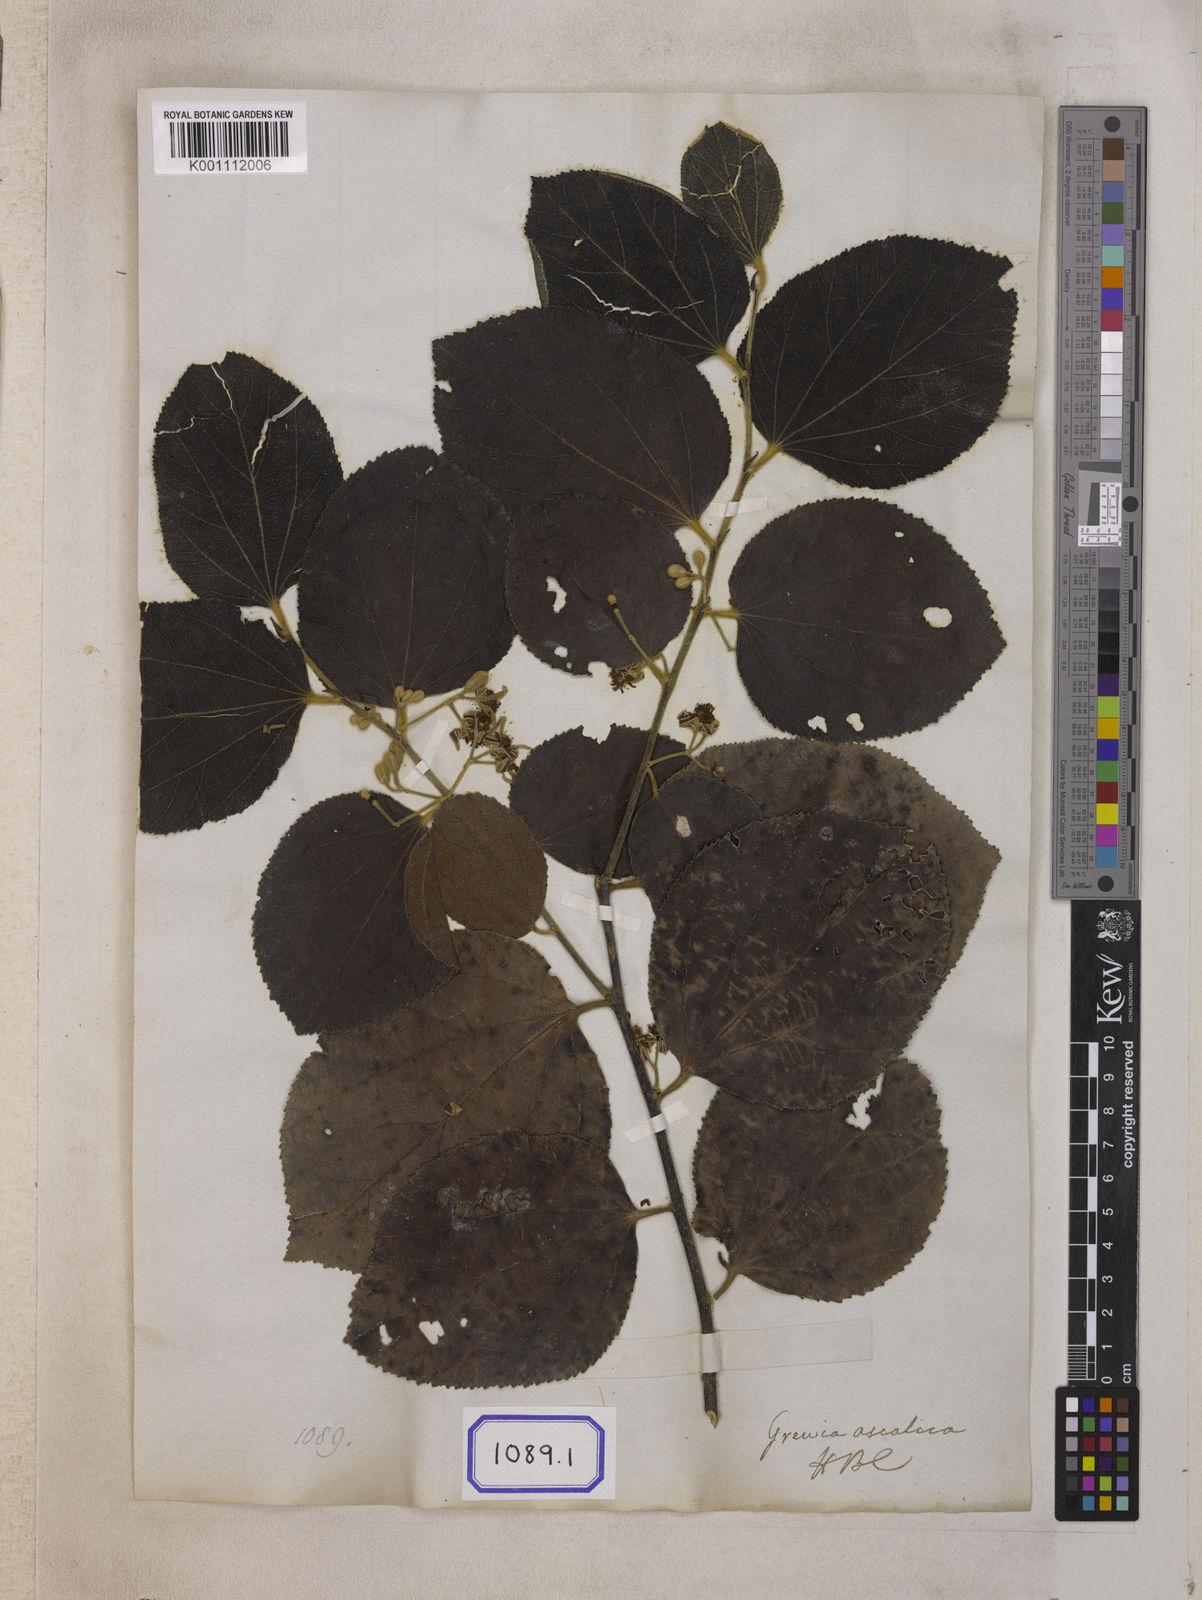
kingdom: Plantae
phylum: Tracheophyta
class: Magnoliopsida
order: Malvales
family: Malvaceae
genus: Grewia
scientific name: Grewia asiatica
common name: Phalsa
